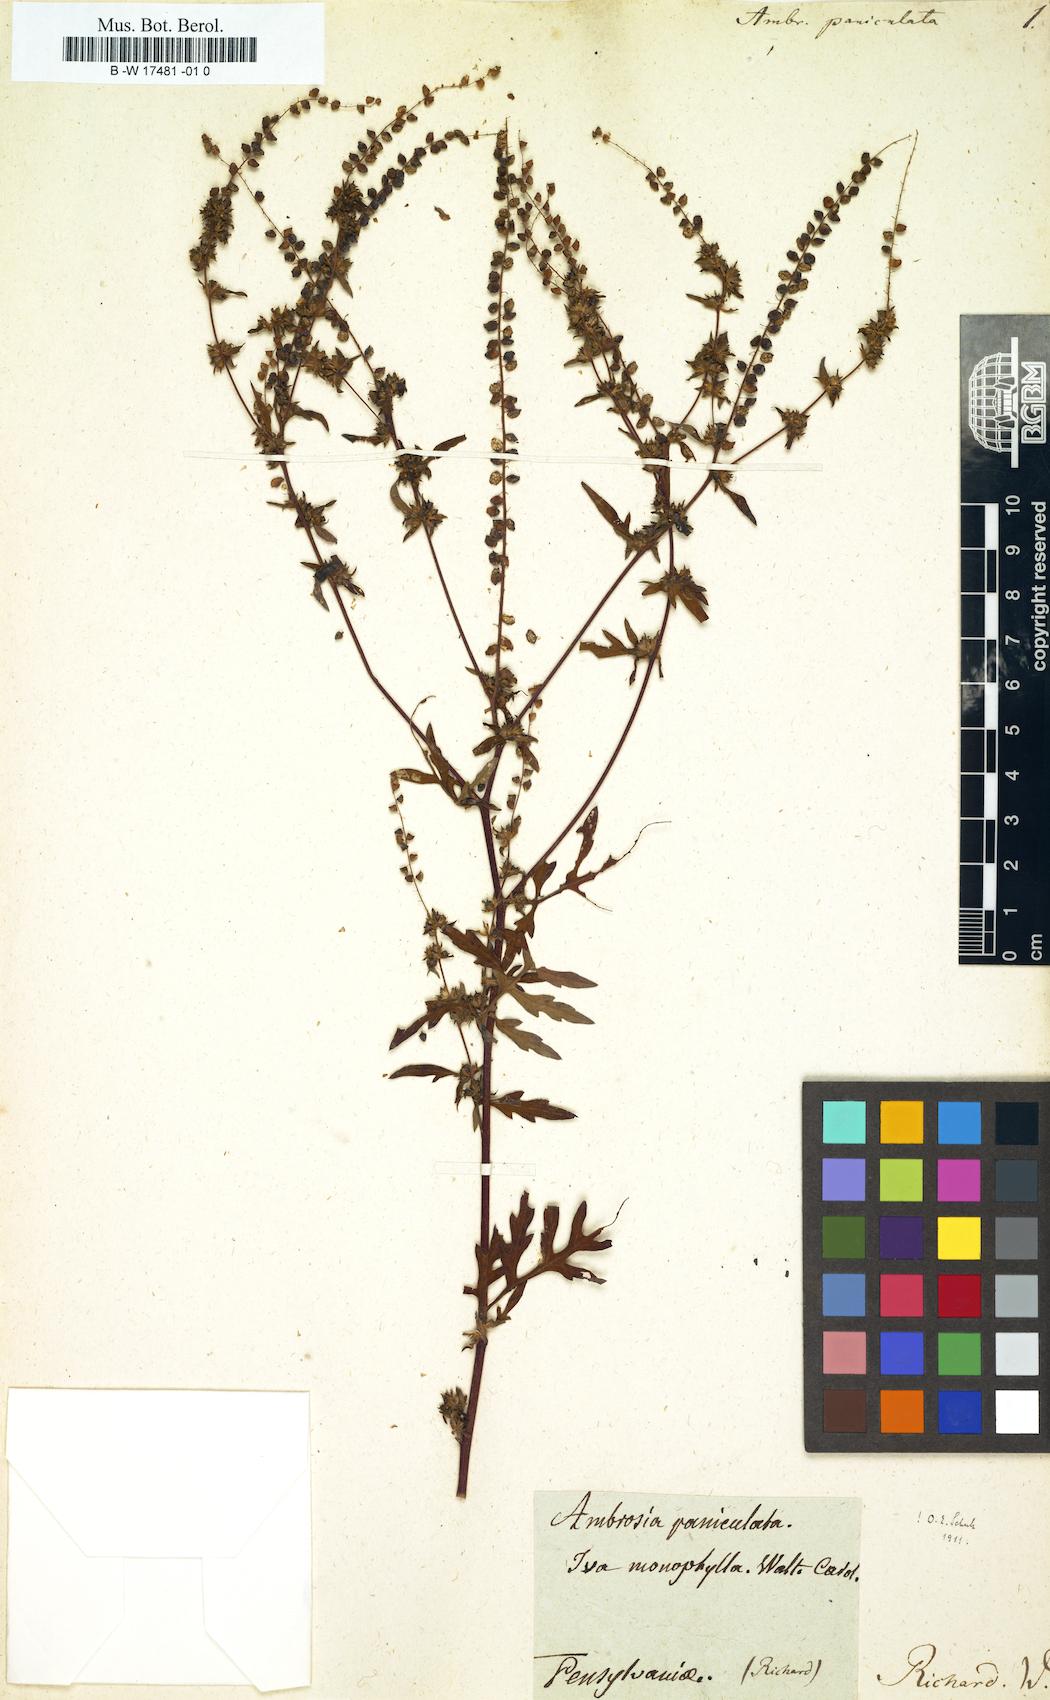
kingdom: Plantae
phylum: Tracheophyta
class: Magnoliopsida
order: Asterales
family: Asteraceae
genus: Ambrosia
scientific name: Ambrosia artemisiifolia
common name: Annual ragweed
